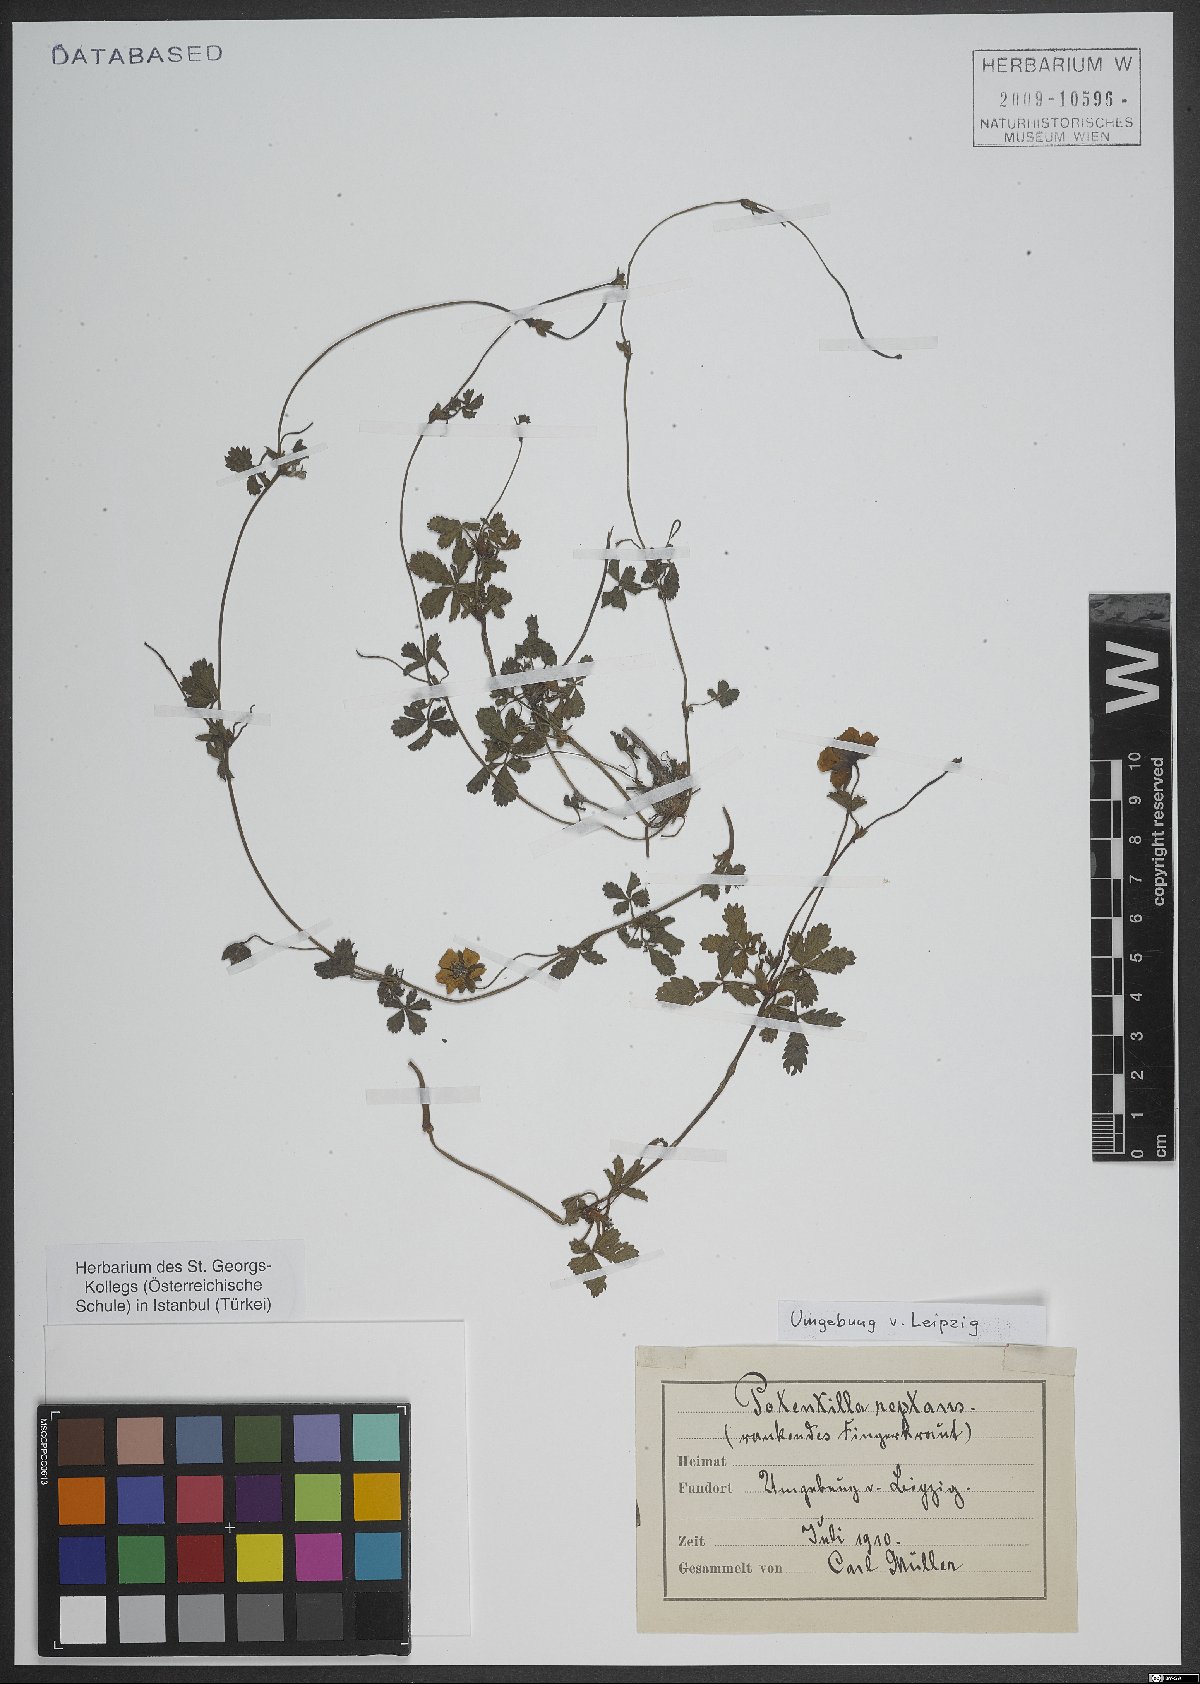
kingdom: Plantae
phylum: Tracheophyta
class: Magnoliopsida
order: Rosales
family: Rosaceae
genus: Potentilla
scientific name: Potentilla reptans
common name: Creeping cinquefoil
